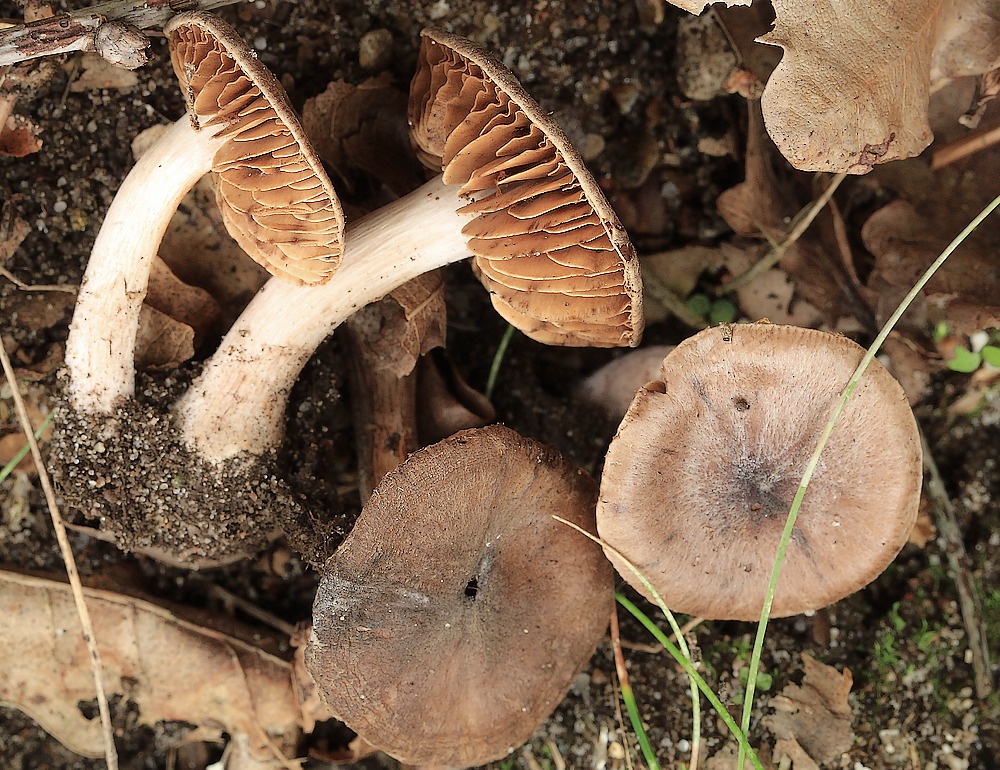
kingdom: Fungi
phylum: Basidiomycota
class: Agaricomycetes
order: Agaricales
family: Cortinariaceae
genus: Cortinarius
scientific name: Cortinarius
